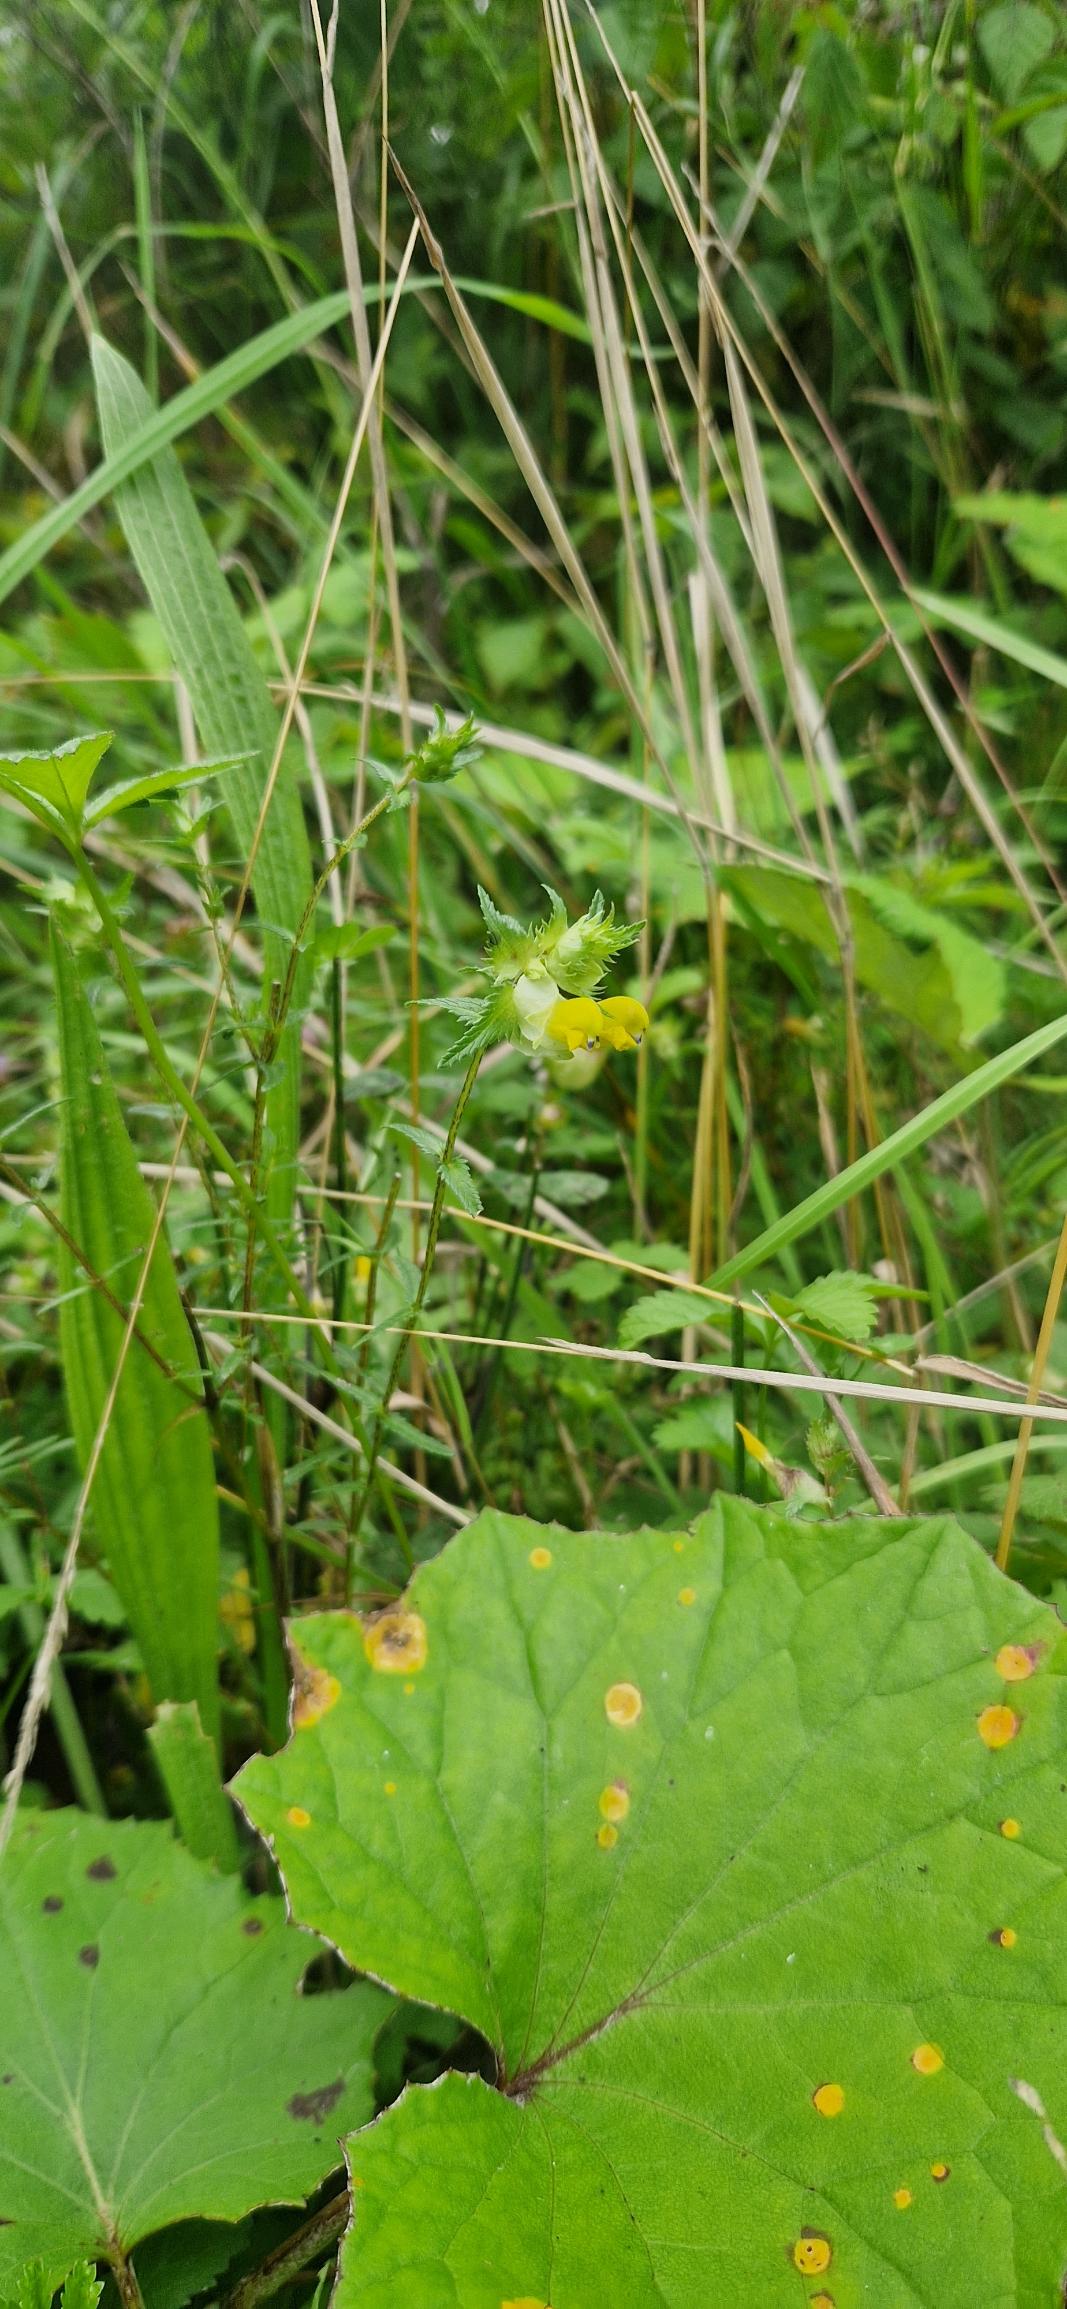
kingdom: Plantae
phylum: Tracheophyta
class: Magnoliopsida
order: Lamiales
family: Orobanchaceae
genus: Rhinanthus
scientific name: Rhinanthus
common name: Stor skjaller
